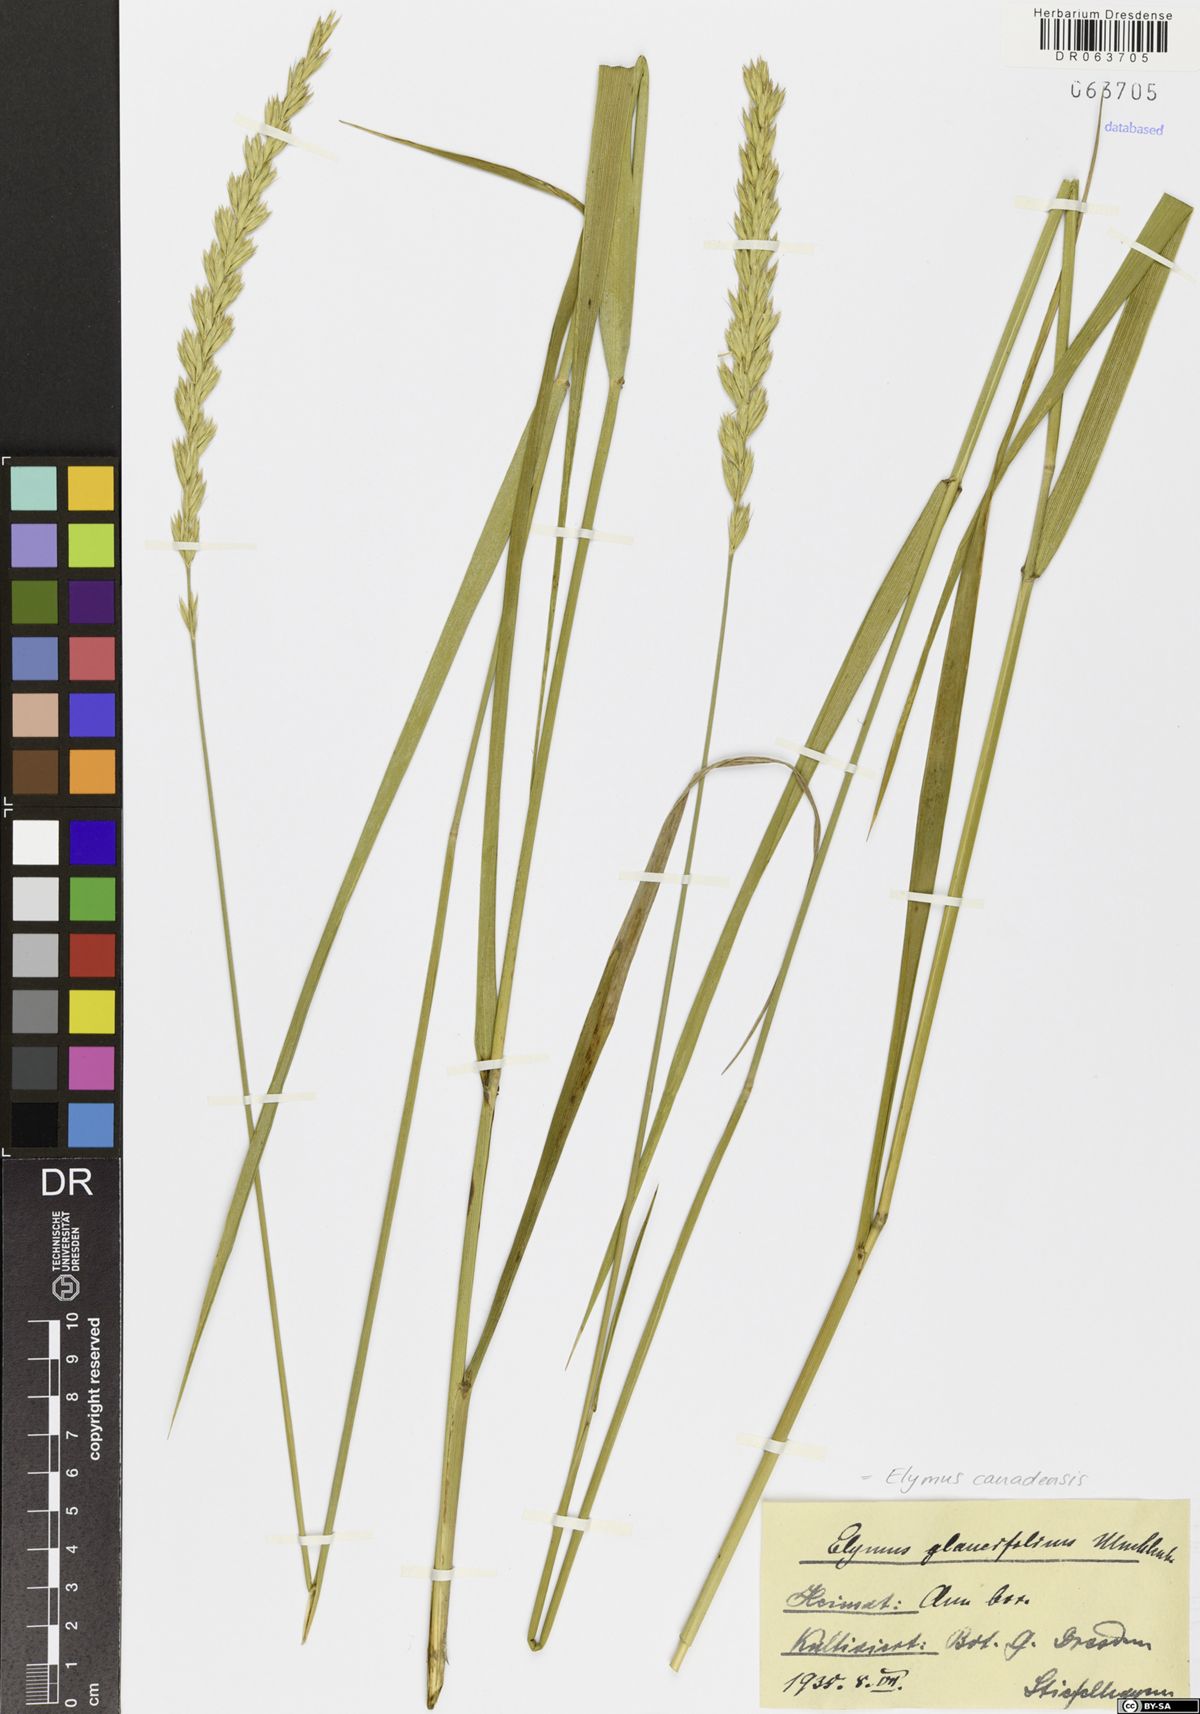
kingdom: Plantae
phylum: Tracheophyta
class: Liliopsida
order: Poales
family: Poaceae
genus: Elymus
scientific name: Elymus canadensis
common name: Canada wild rye
